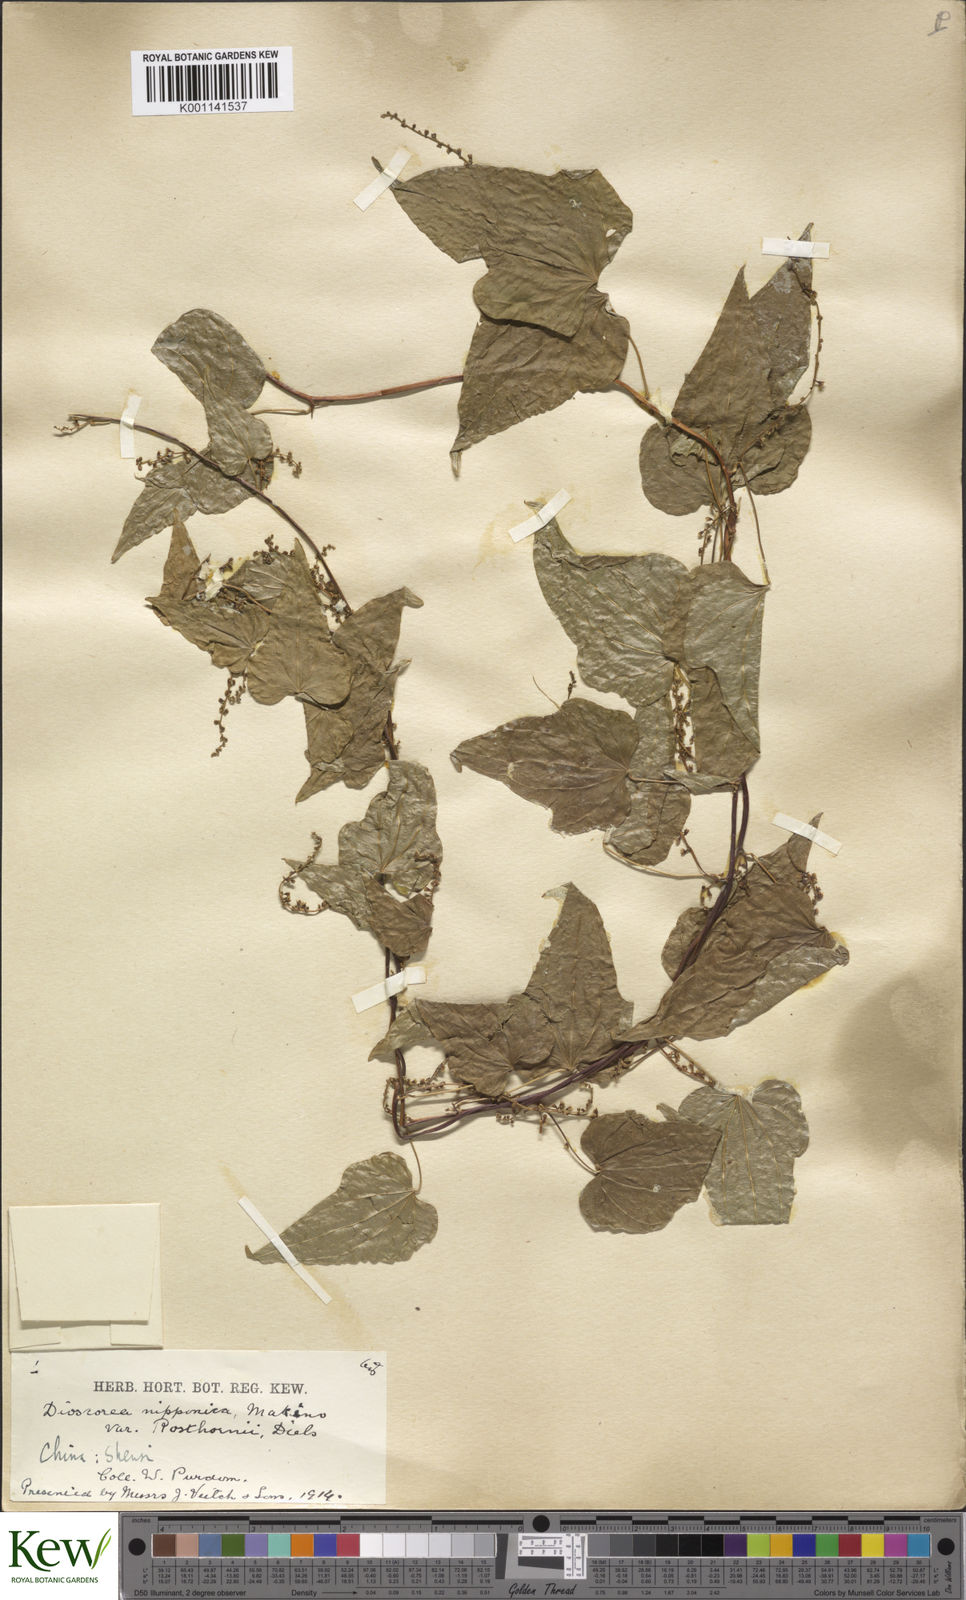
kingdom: Plantae
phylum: Tracheophyta
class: Liliopsida
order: Dioscoreales
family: Dioscoreaceae
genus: Dioscorea
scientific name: Dioscorea nipponica
